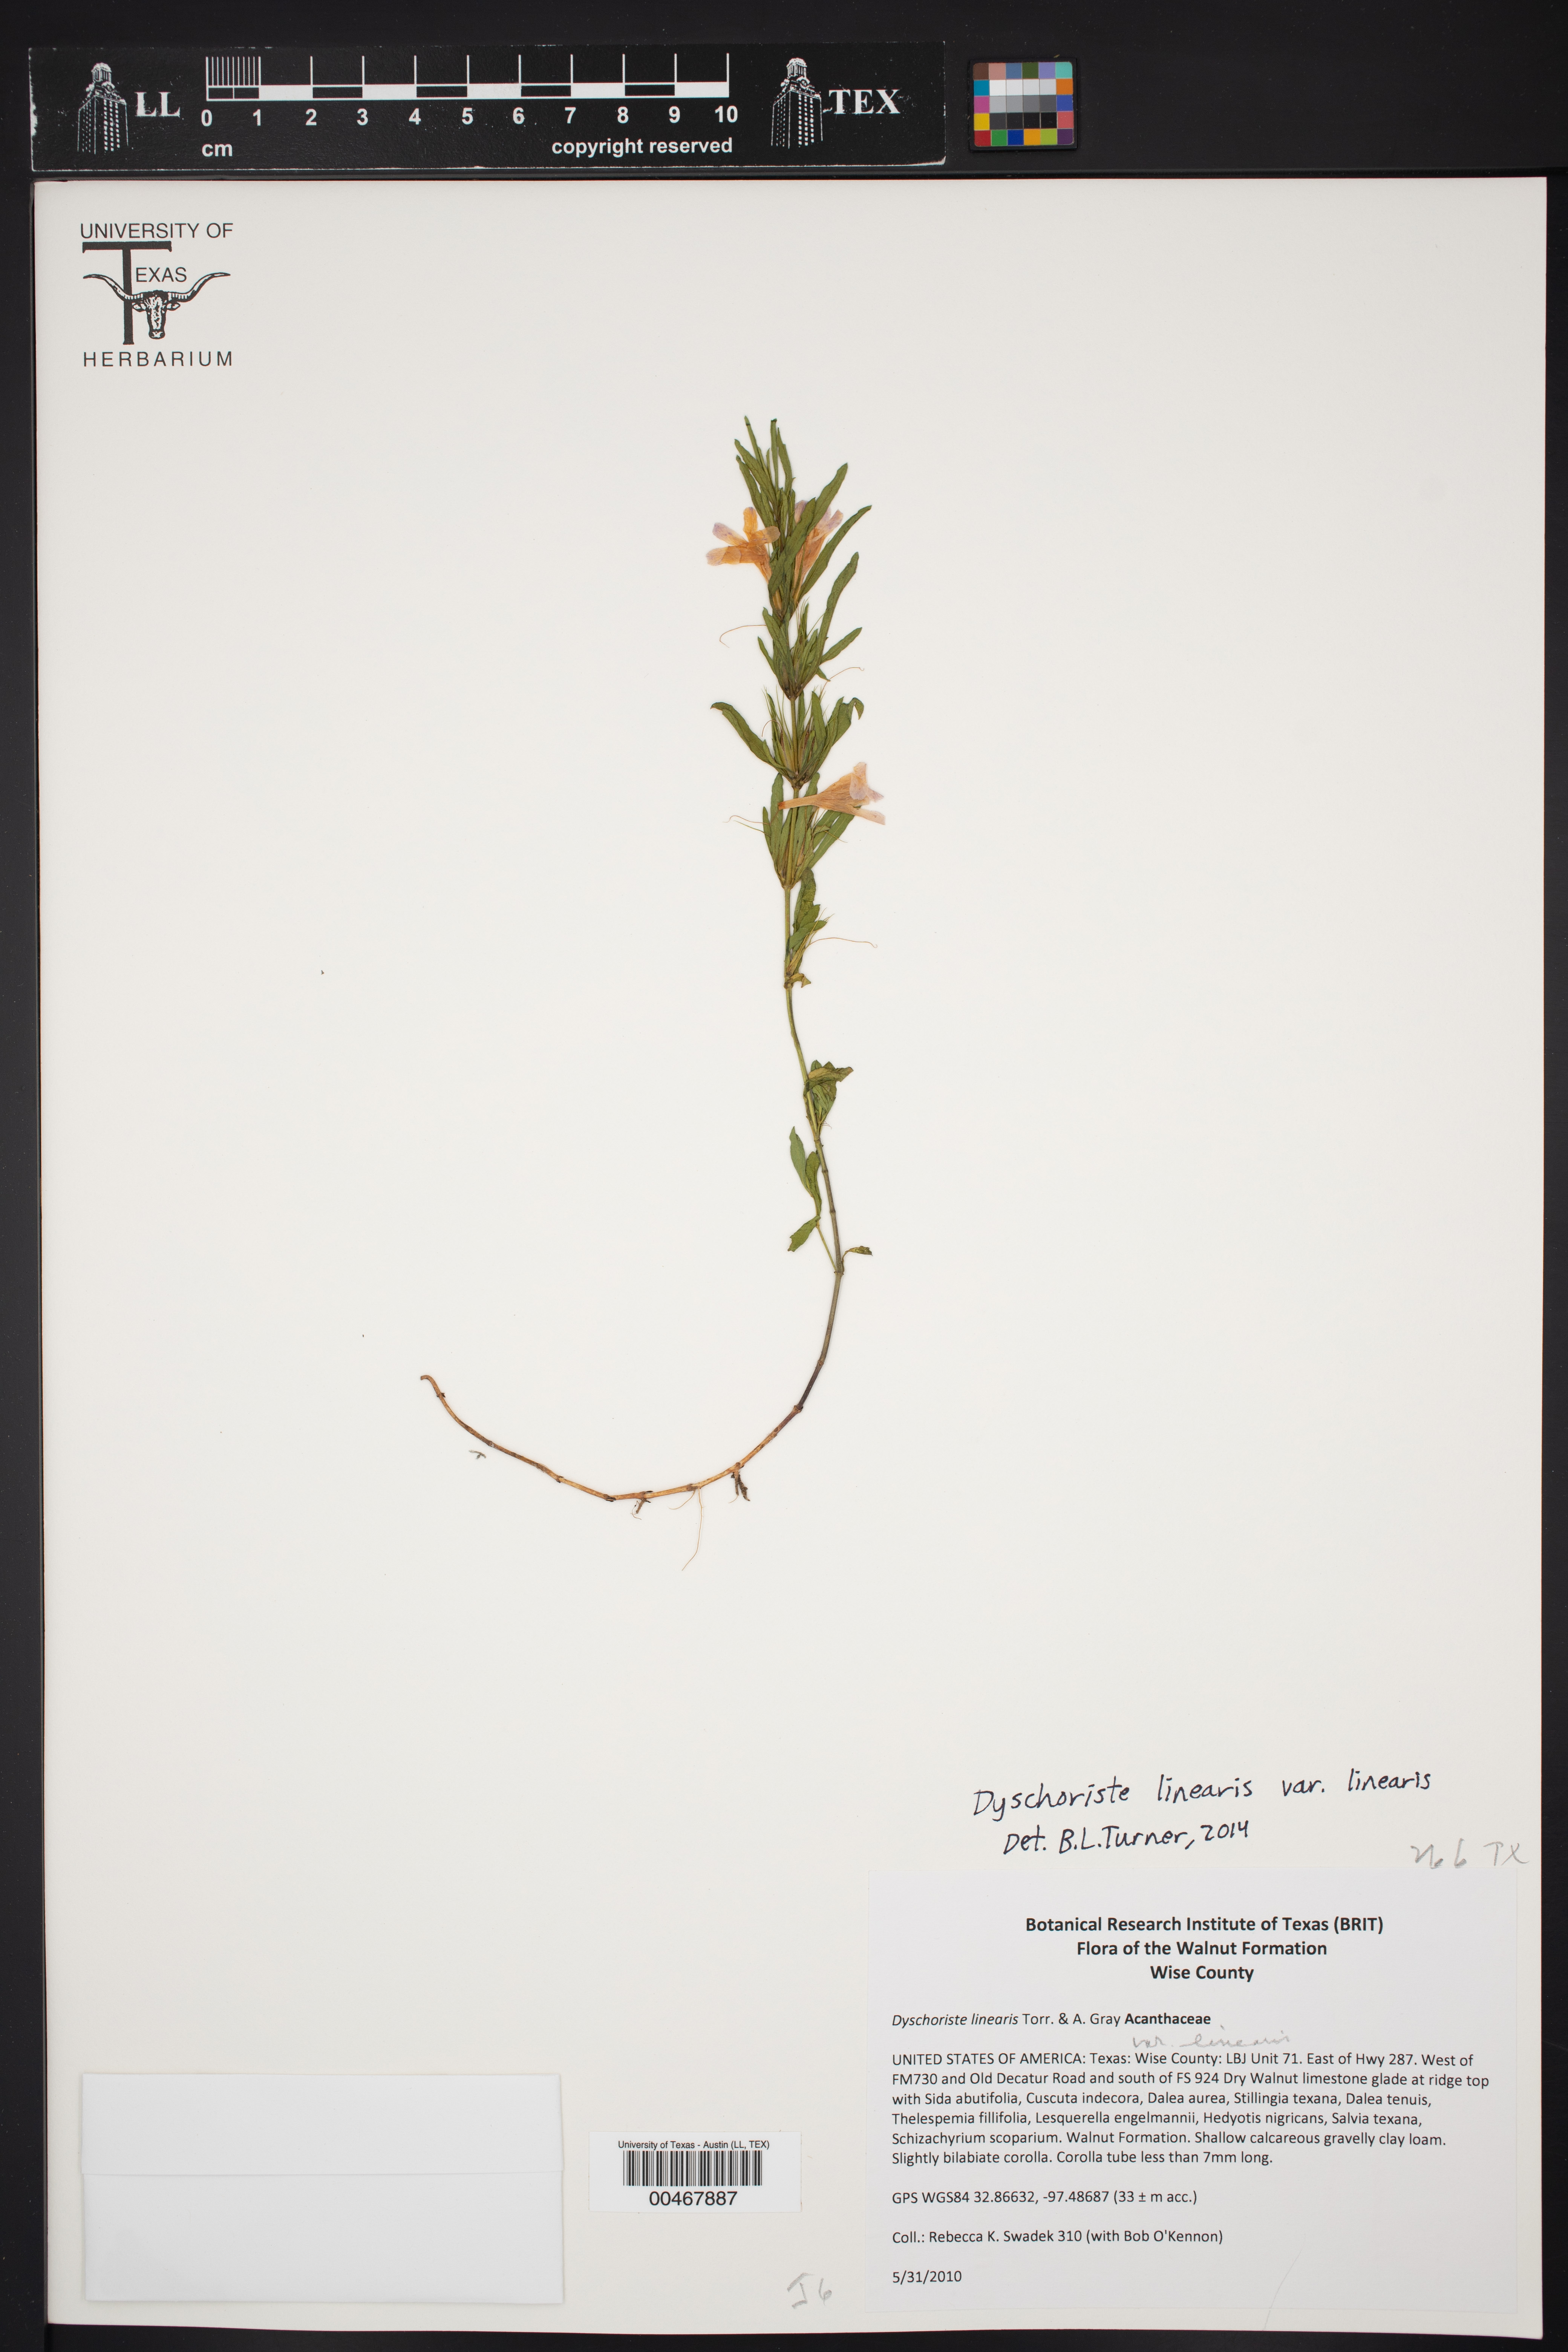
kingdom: Plantae
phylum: Tracheophyta
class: Magnoliopsida
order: Lamiales
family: Acanthaceae
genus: Dyschoriste
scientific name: Dyschoriste linearis
